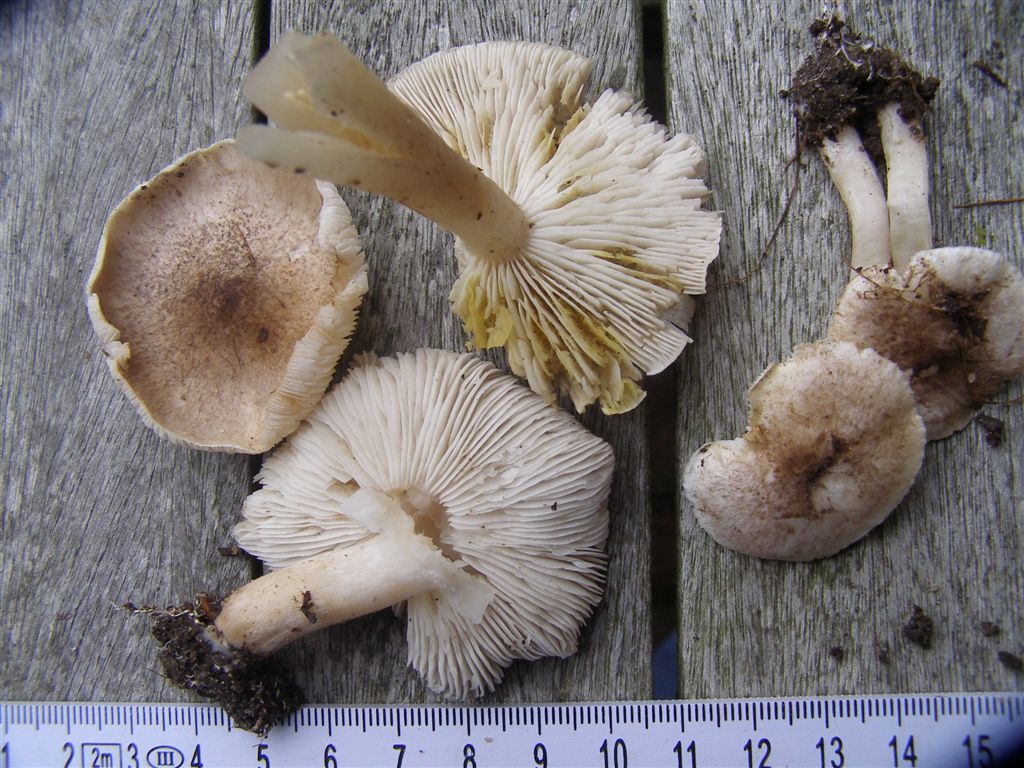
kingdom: Fungi
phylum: Basidiomycota
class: Agaricomycetes
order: Agaricales
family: Tricholomataceae
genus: Tricholoma
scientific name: Tricholoma scalpturatum
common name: gulplettet ridderhat
